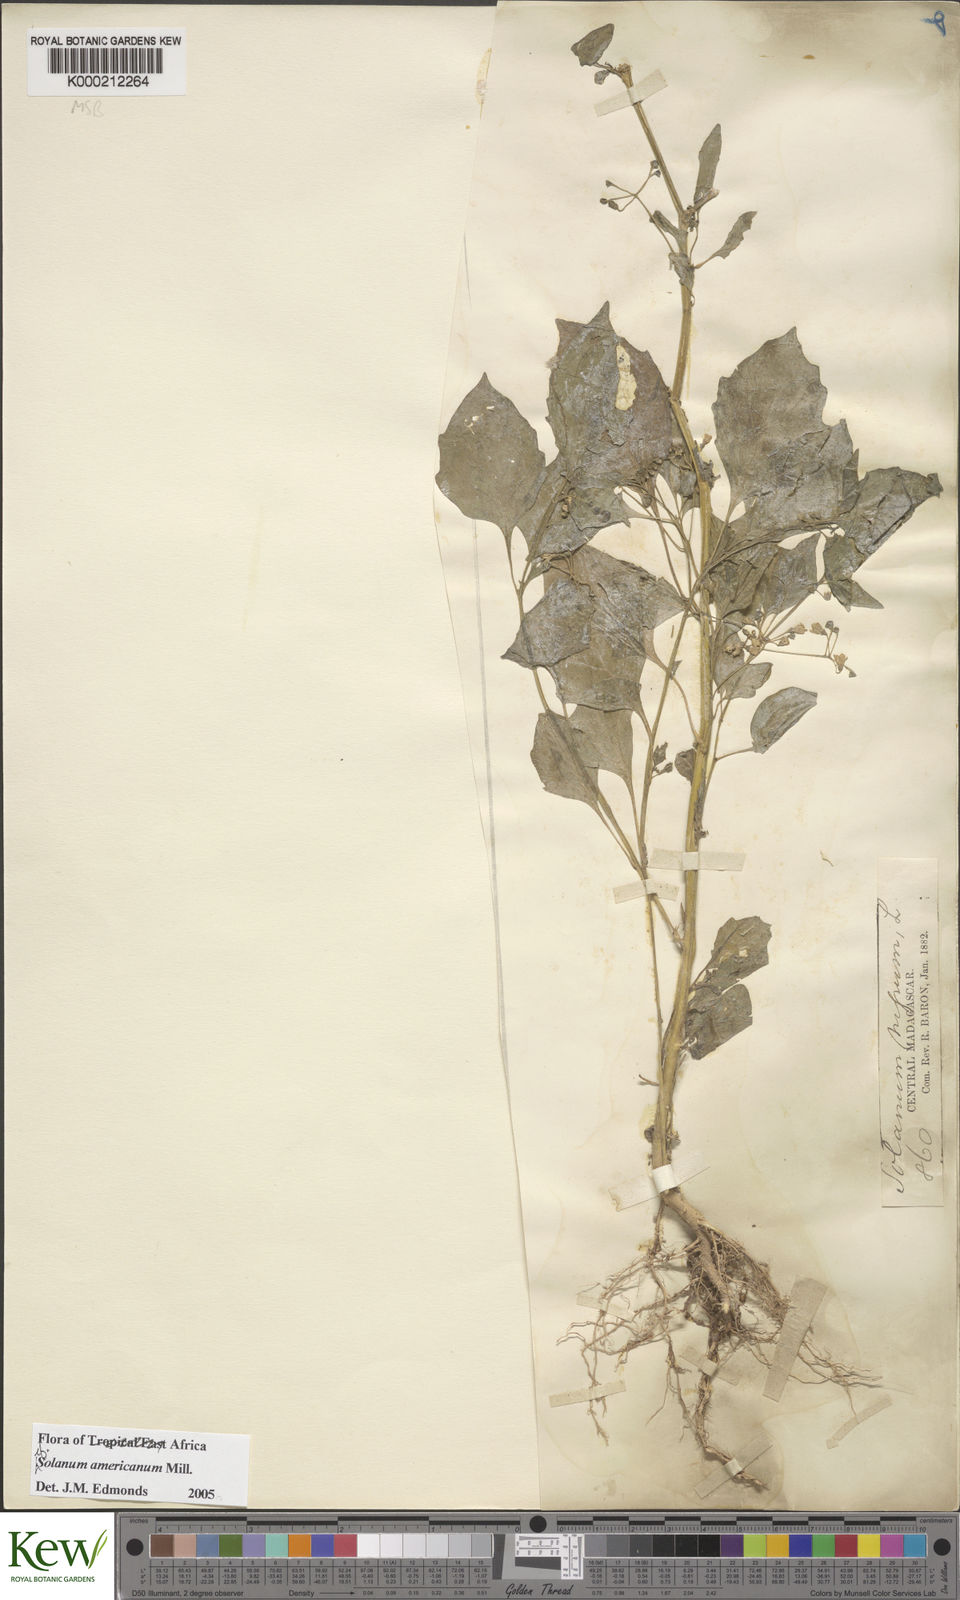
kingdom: Plantae
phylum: Tracheophyta
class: Magnoliopsida
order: Solanales
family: Solanaceae
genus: Solanum
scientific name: Solanum americanum
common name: American black nightshade
